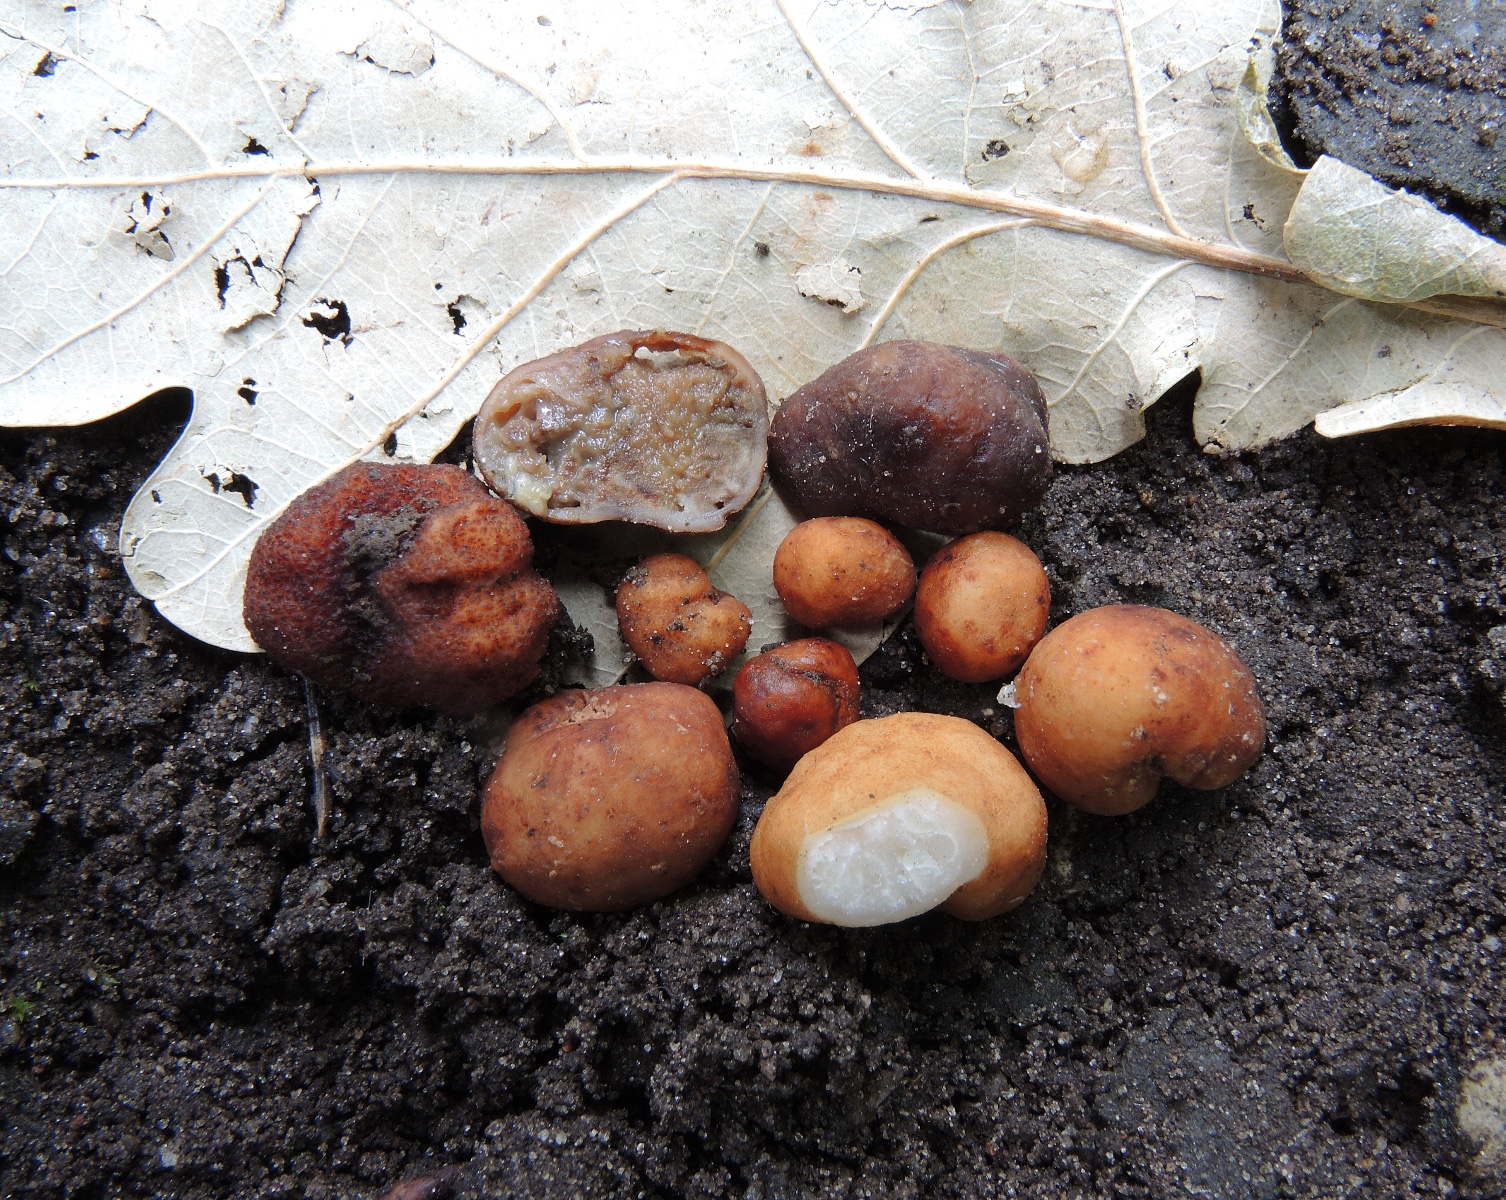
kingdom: Fungi
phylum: Ascomycota
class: Pezizomycetes
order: Pezizales
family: Tuberaceae
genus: Tuber
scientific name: Tuber rufum
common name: rødbrun trøffel
